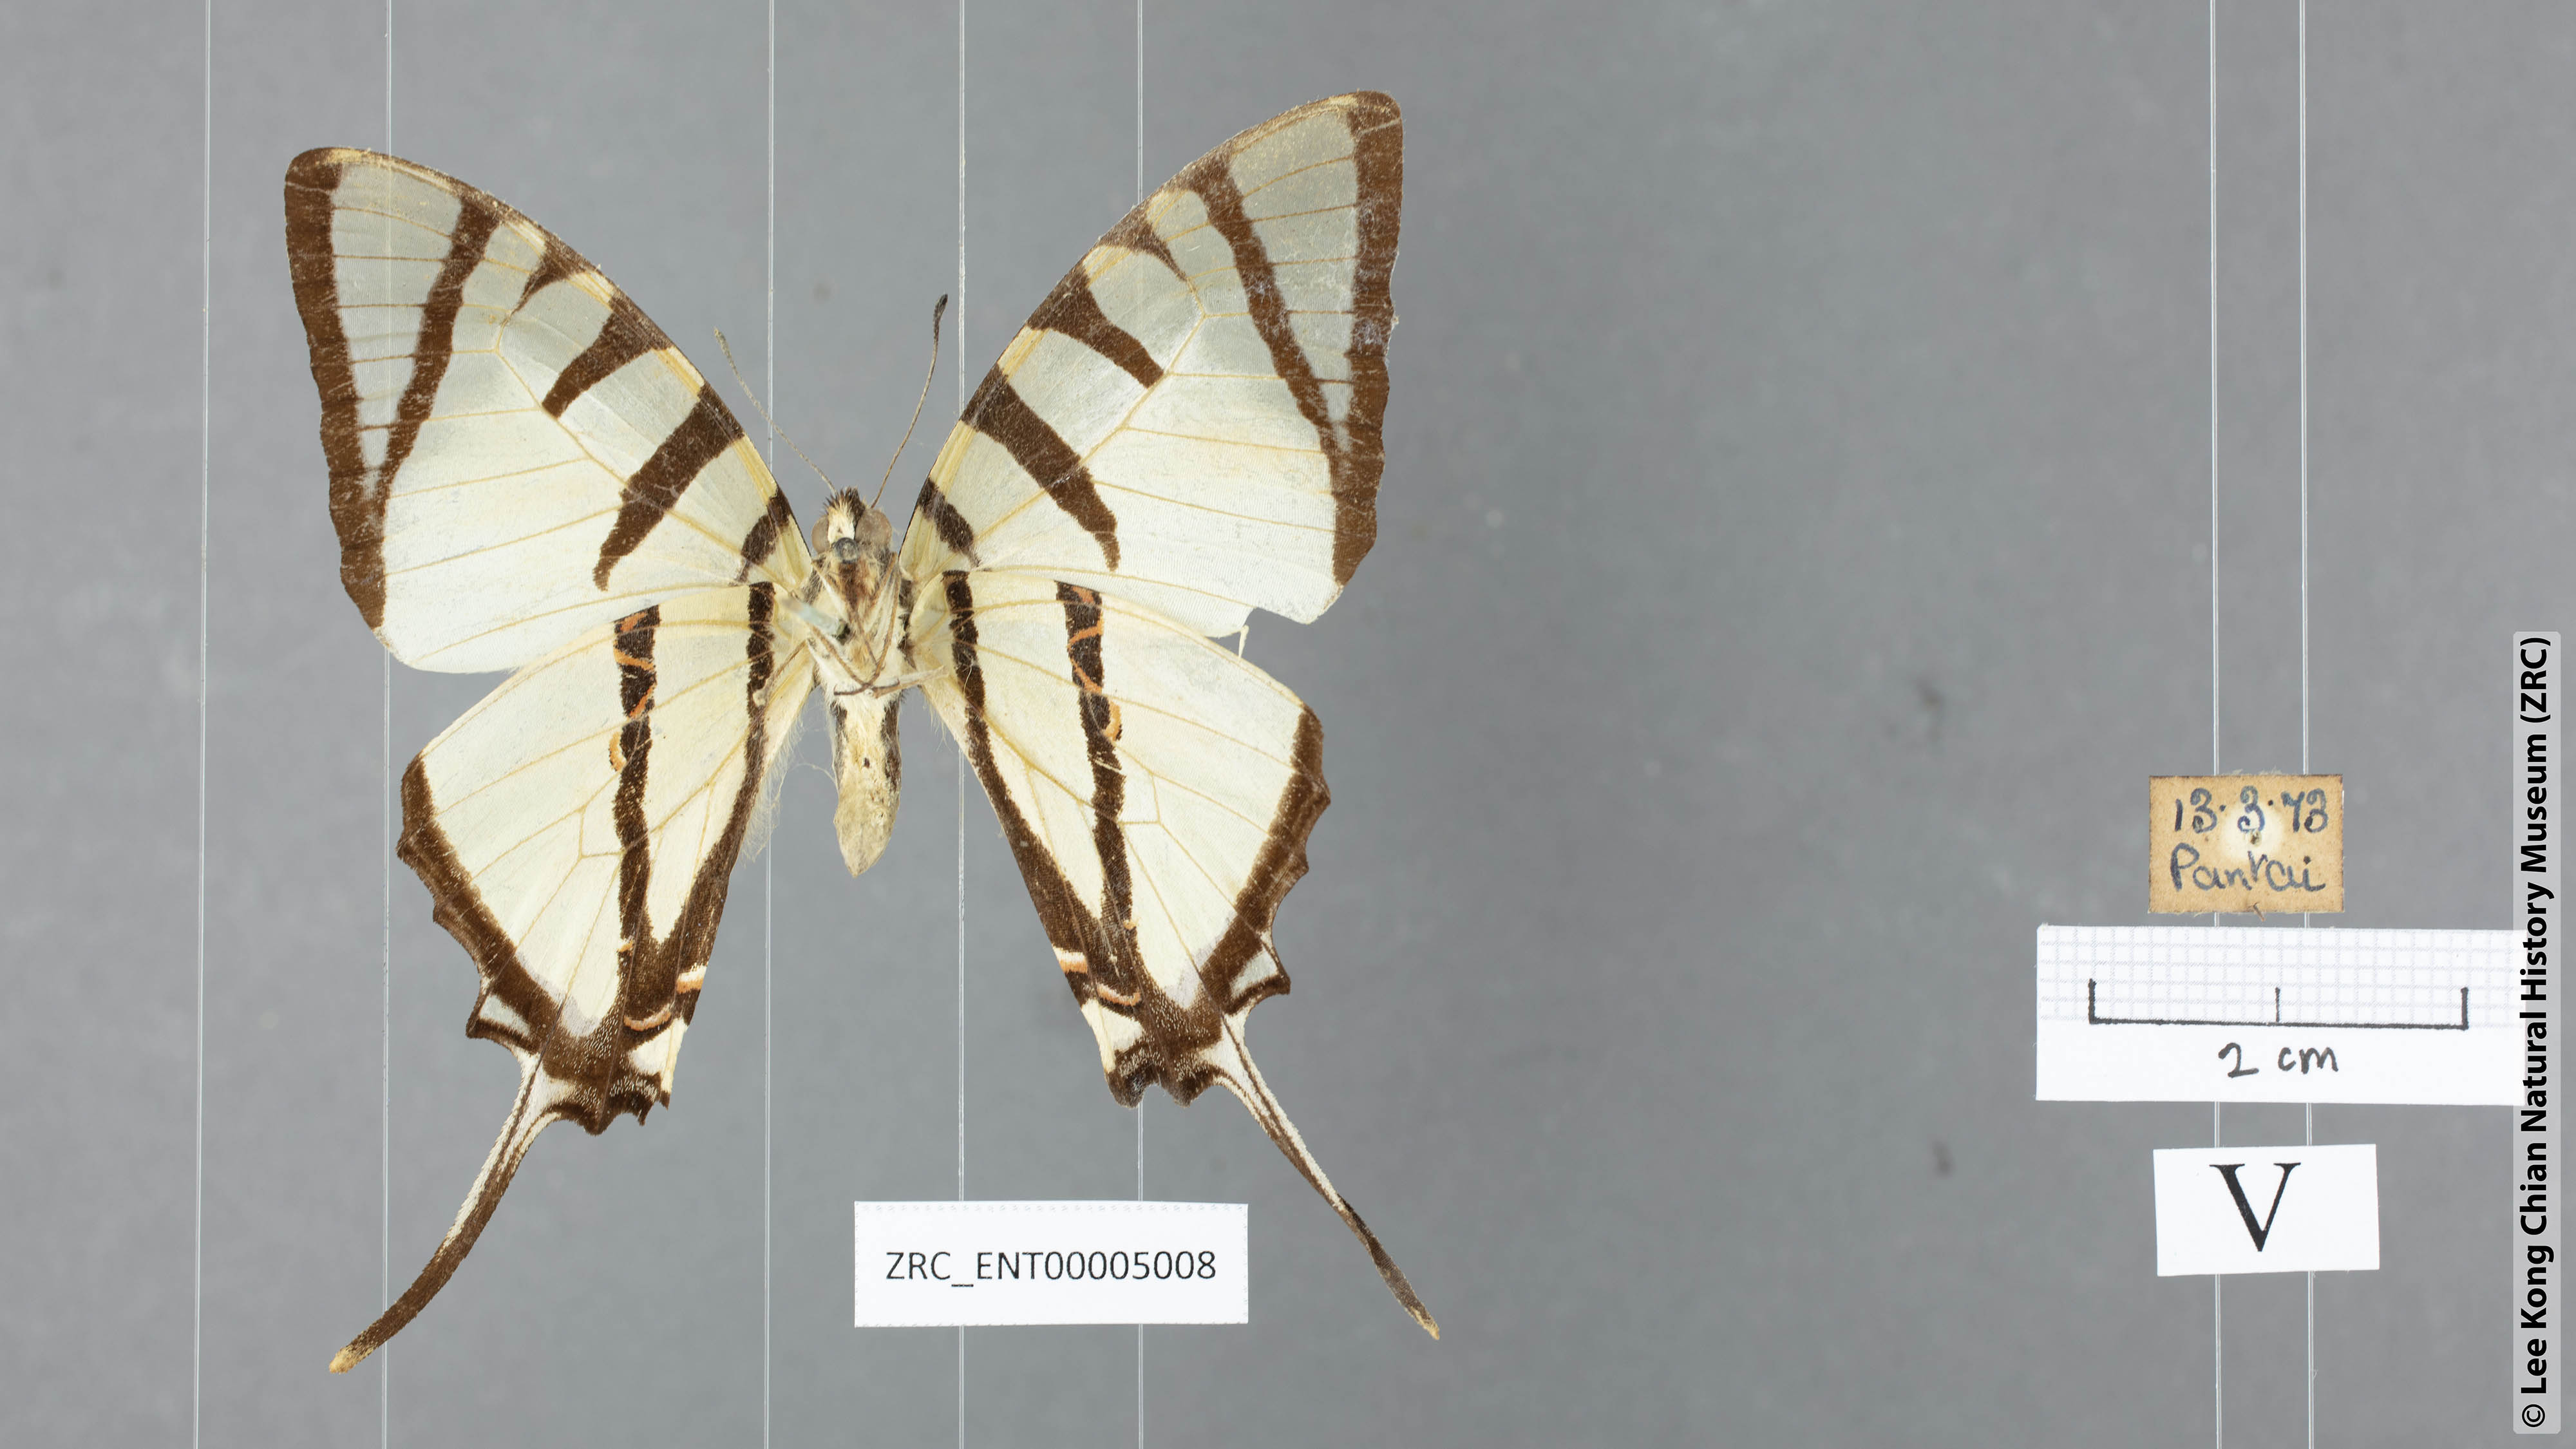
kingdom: Animalia
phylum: Arthropoda
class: Insecta
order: Lepidoptera
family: Papilionidae
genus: Graphium
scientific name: Graphium agetes
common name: Fourbar swordtail
